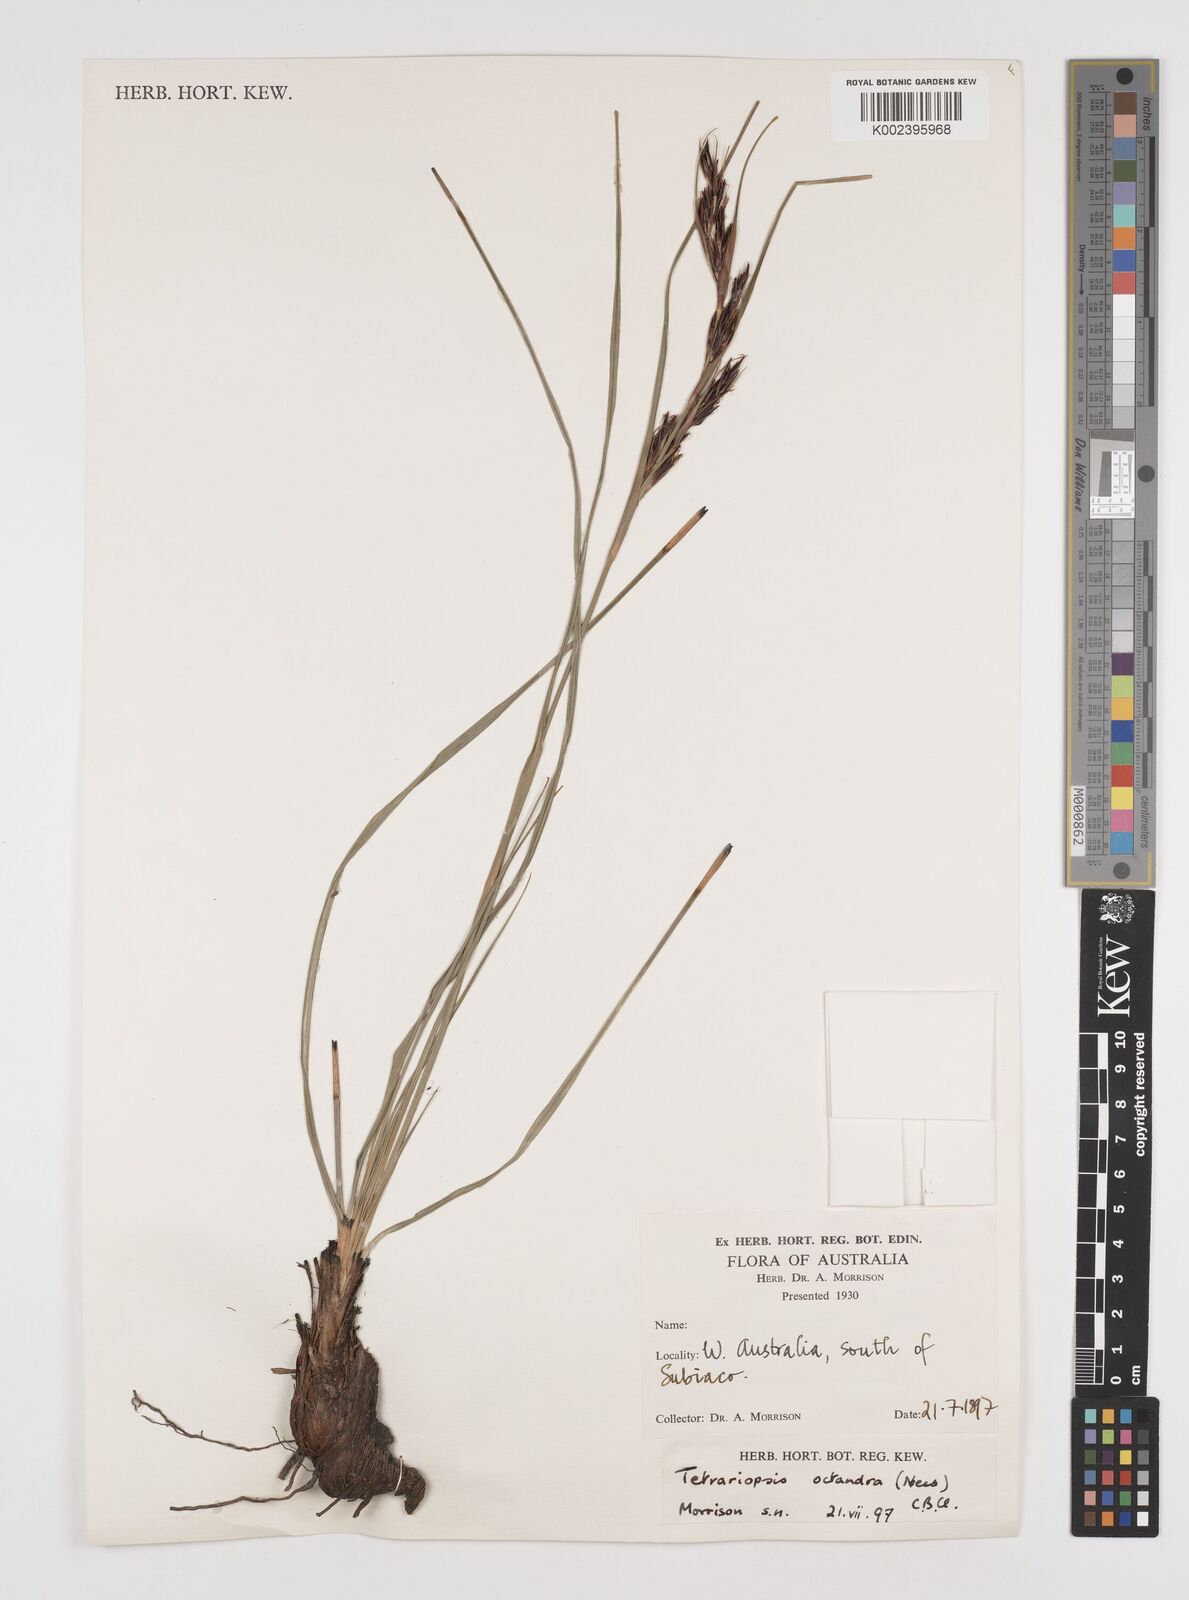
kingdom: Plantae
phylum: Tracheophyta
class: Liliopsida
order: Poales
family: Cyperaceae
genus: Tetraria
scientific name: Tetraria octandra
